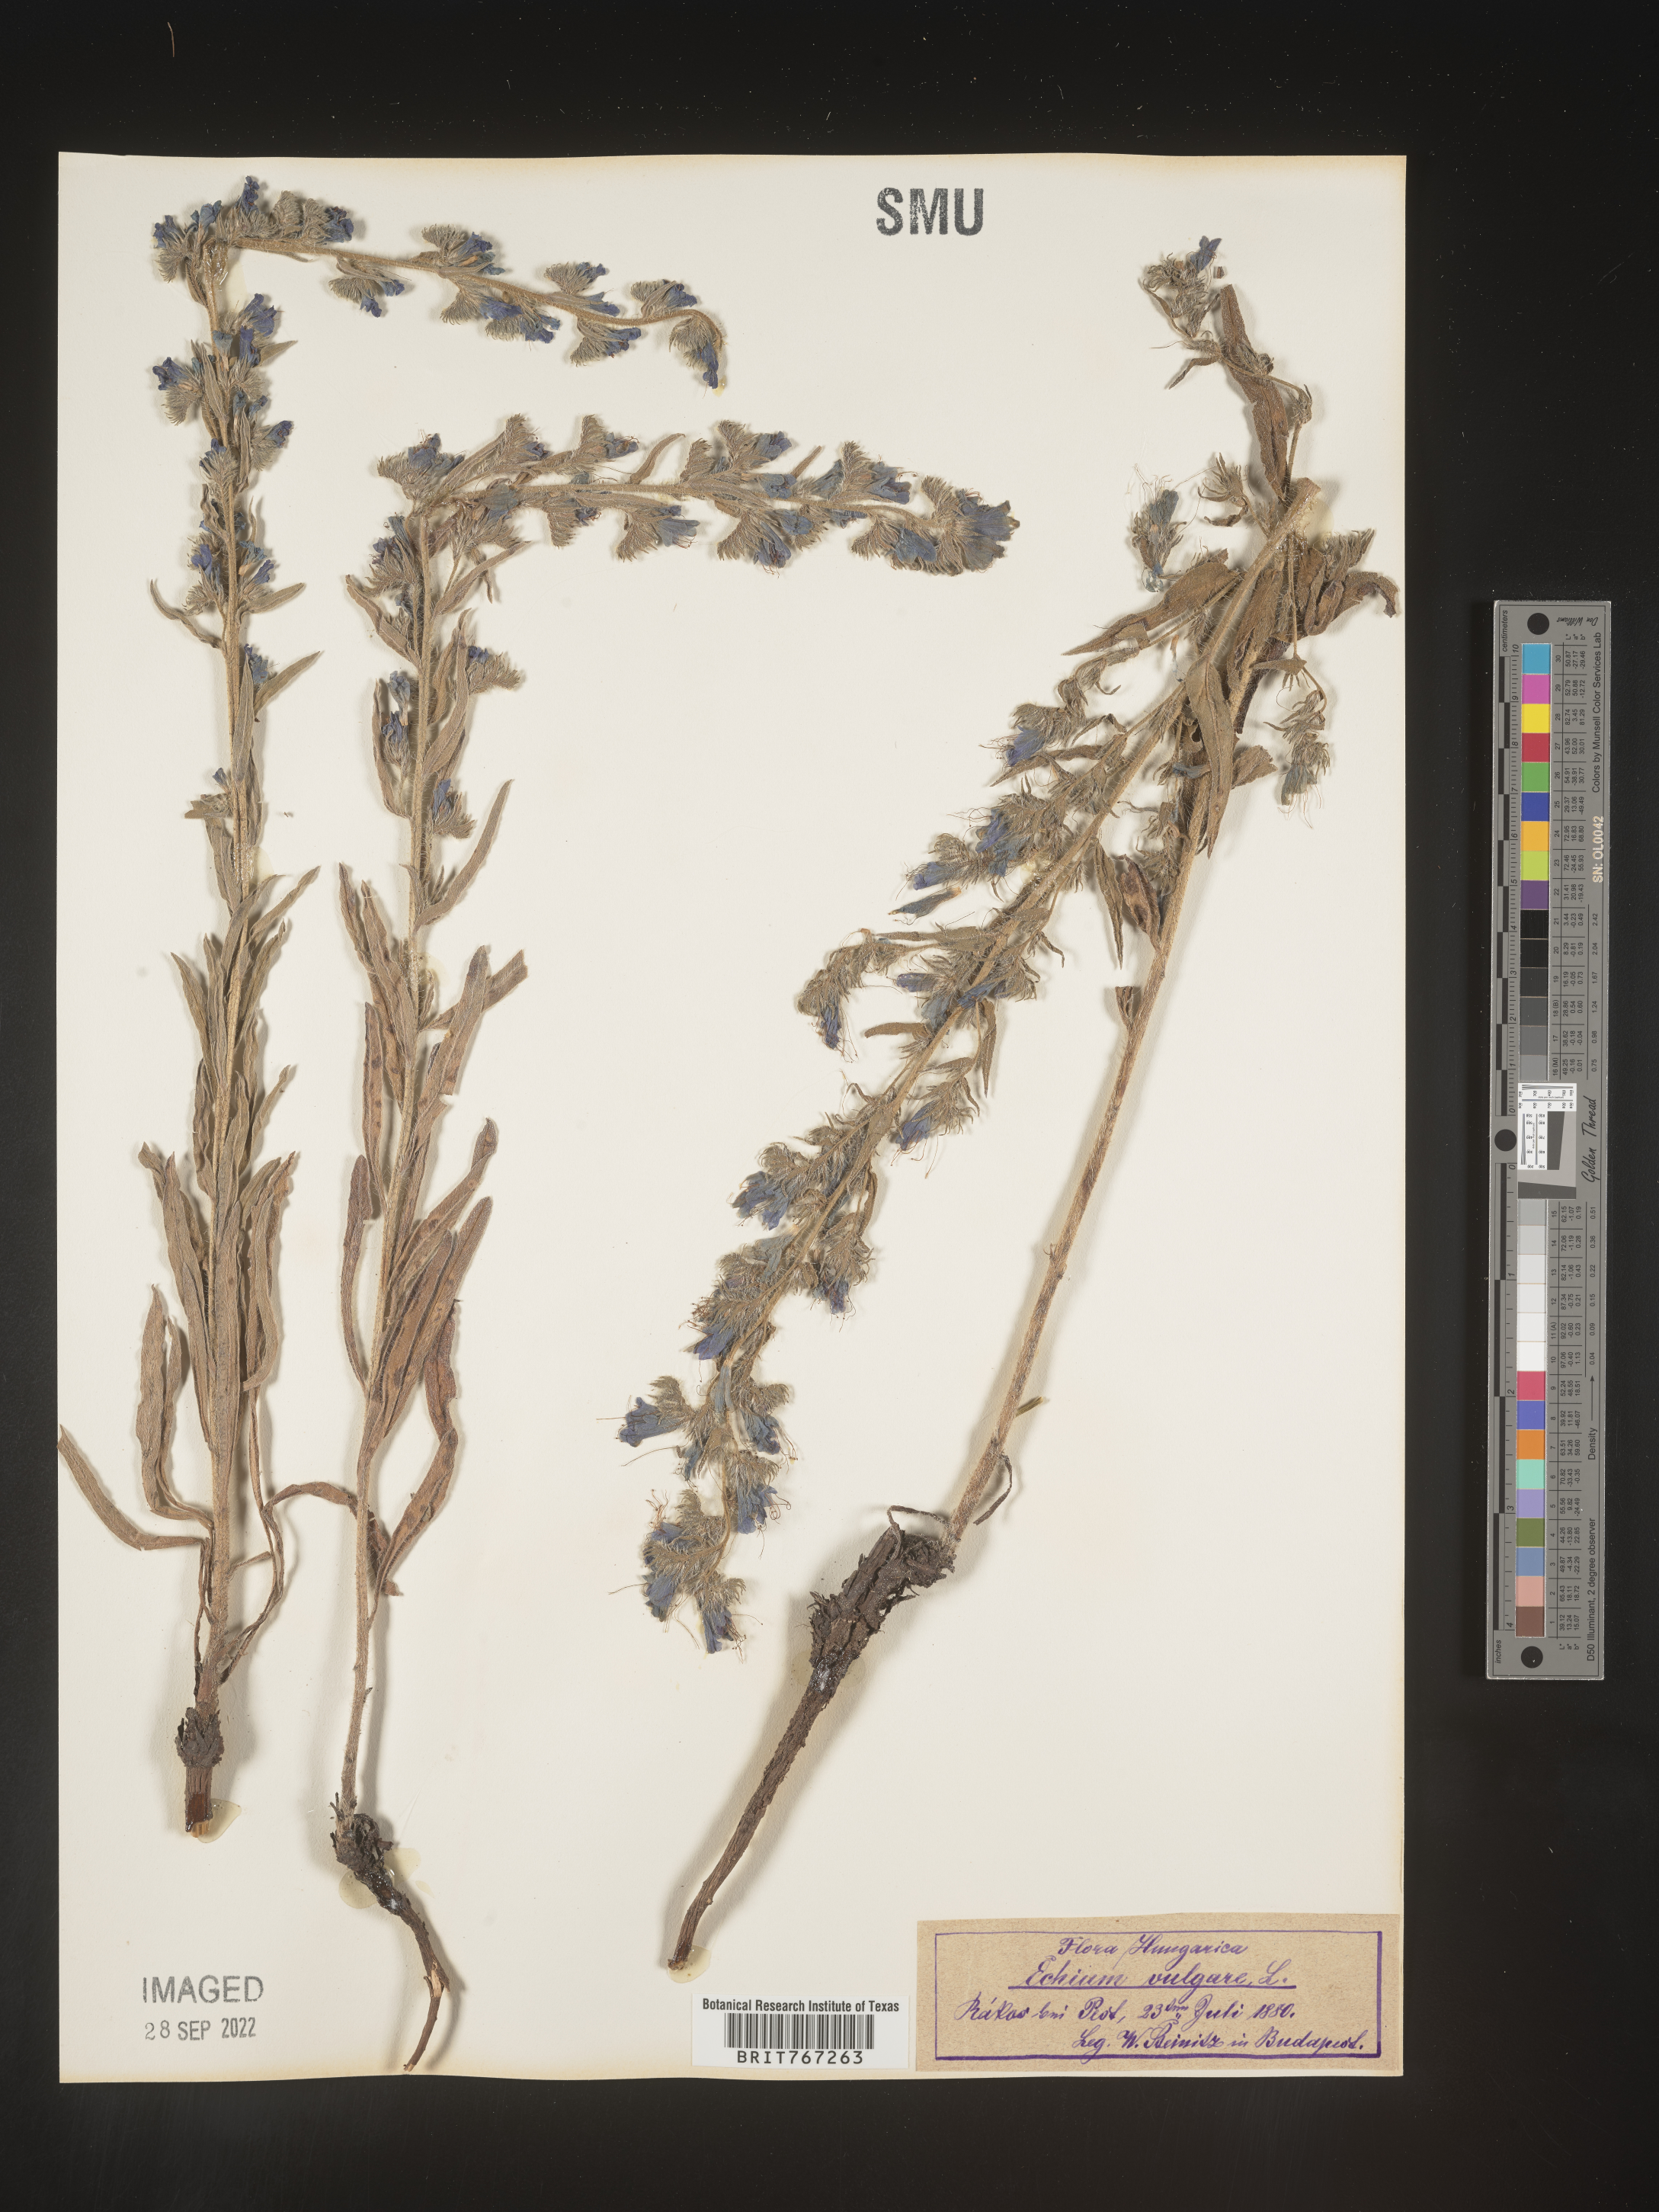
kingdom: Plantae
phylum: Tracheophyta
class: Magnoliopsida
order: Boraginales
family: Boraginaceae
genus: Echium
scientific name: Echium
